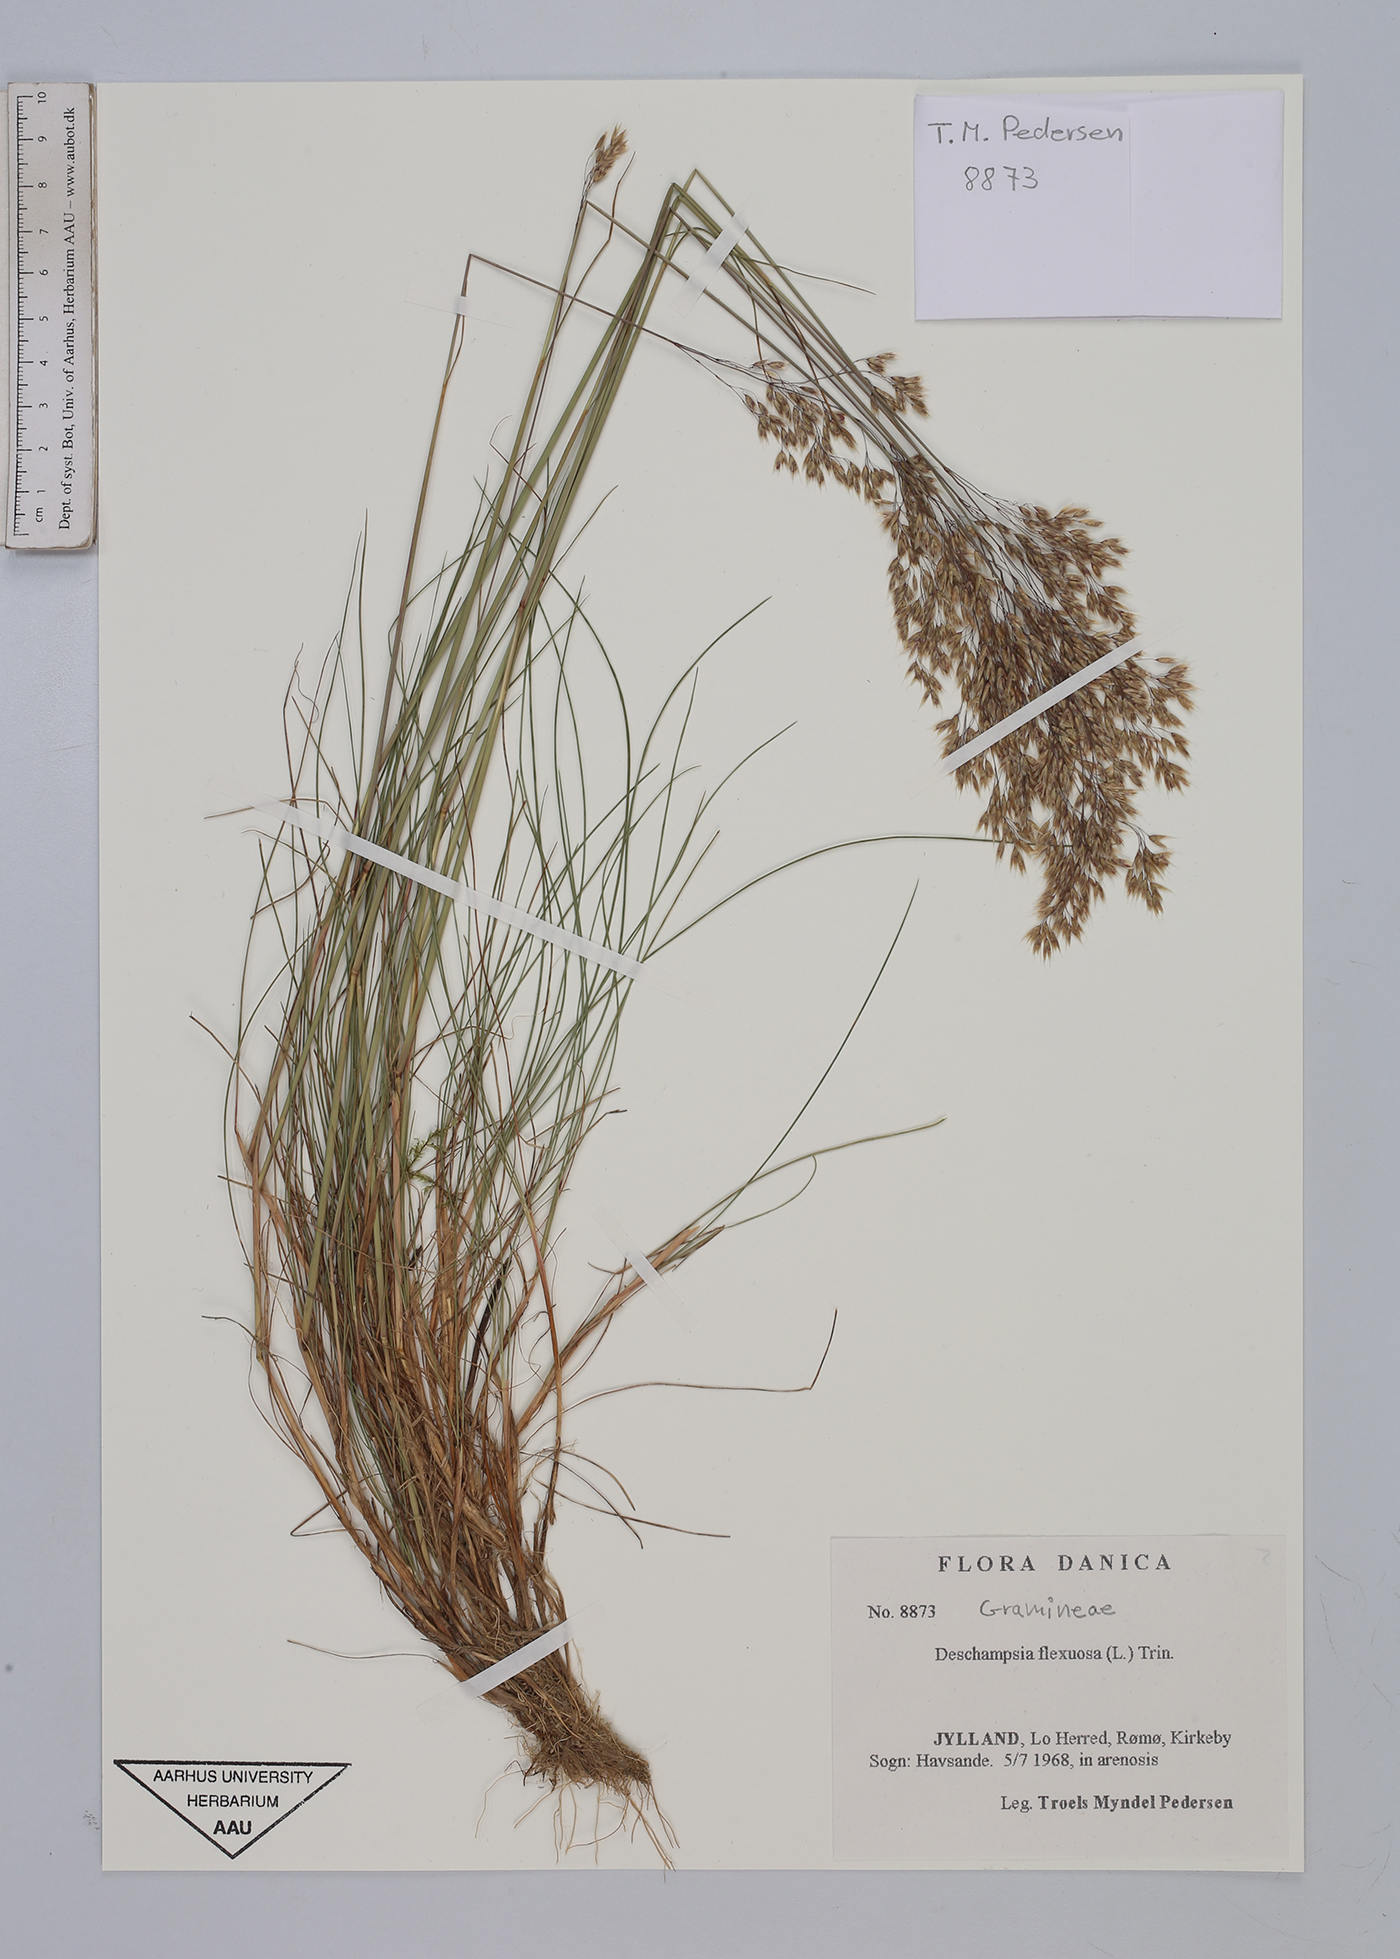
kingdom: Plantae
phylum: Tracheophyta
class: Liliopsida
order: Poales
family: Poaceae
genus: Avenella
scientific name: Avenella flexuosa
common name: Wavy hairgrass
